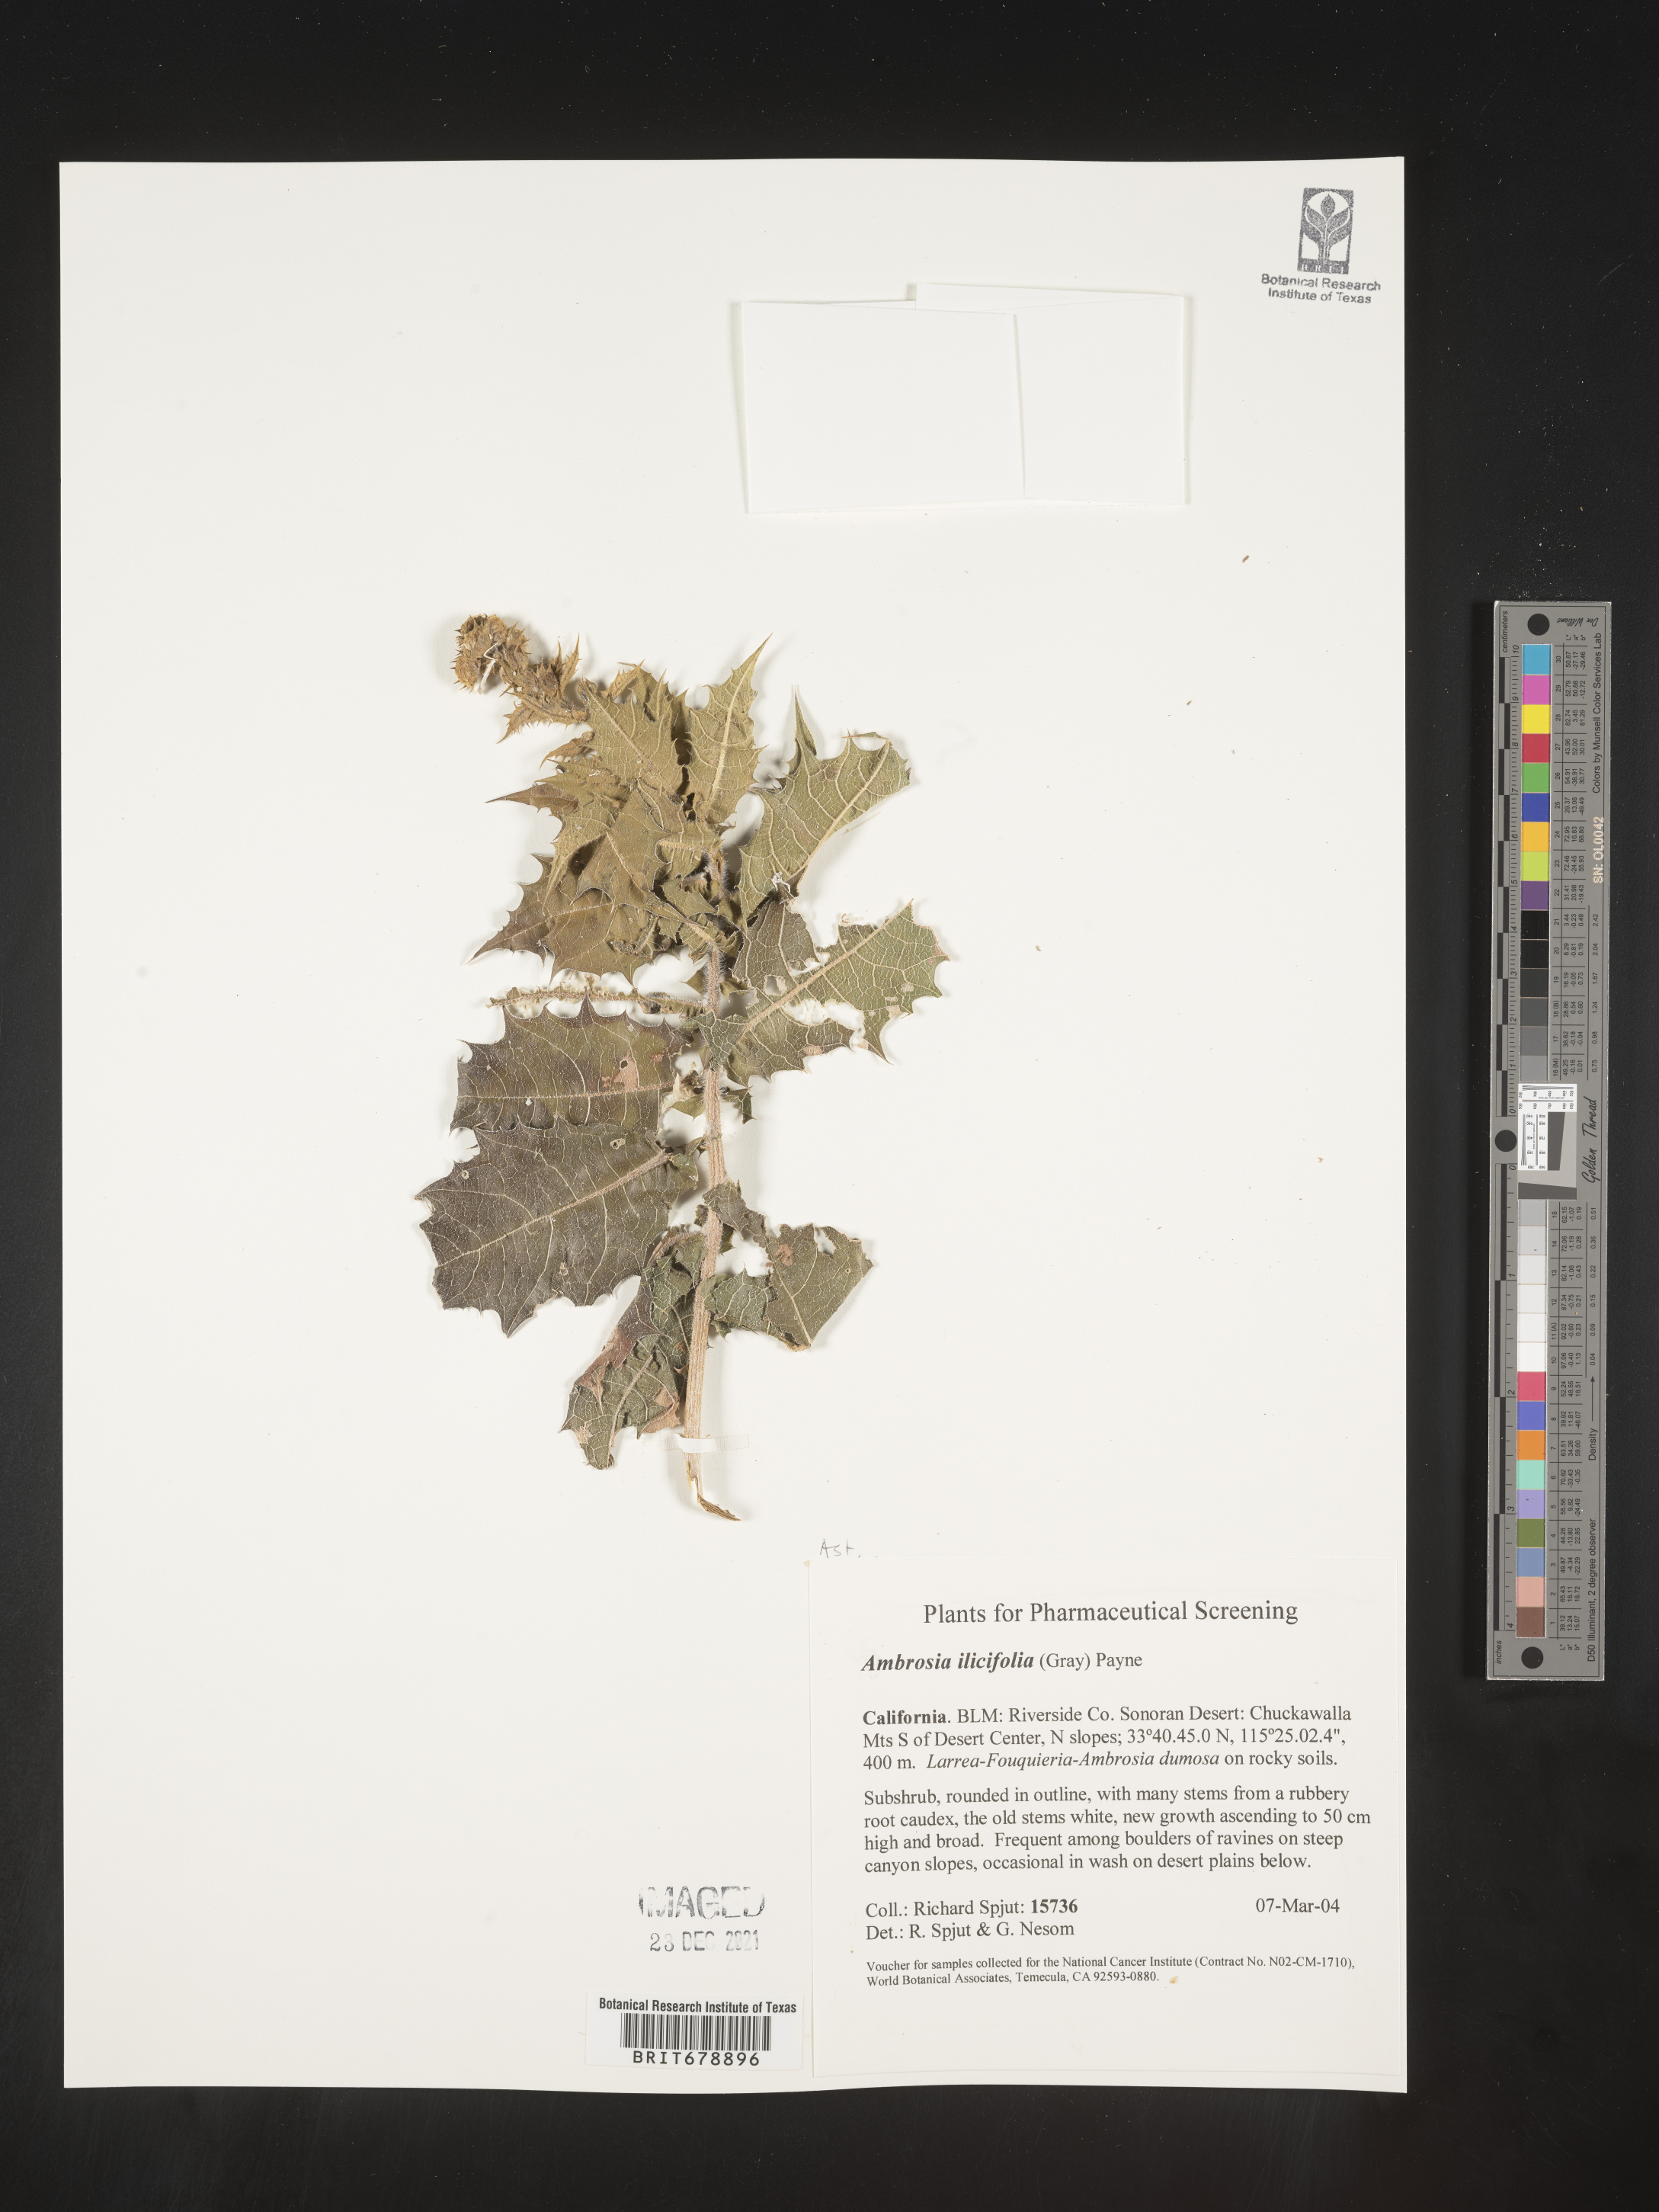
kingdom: Plantae
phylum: Tracheophyta
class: Magnoliopsida
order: Asterales
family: Asteraceae
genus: Ambrosia
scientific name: Ambrosia ilicifolia
